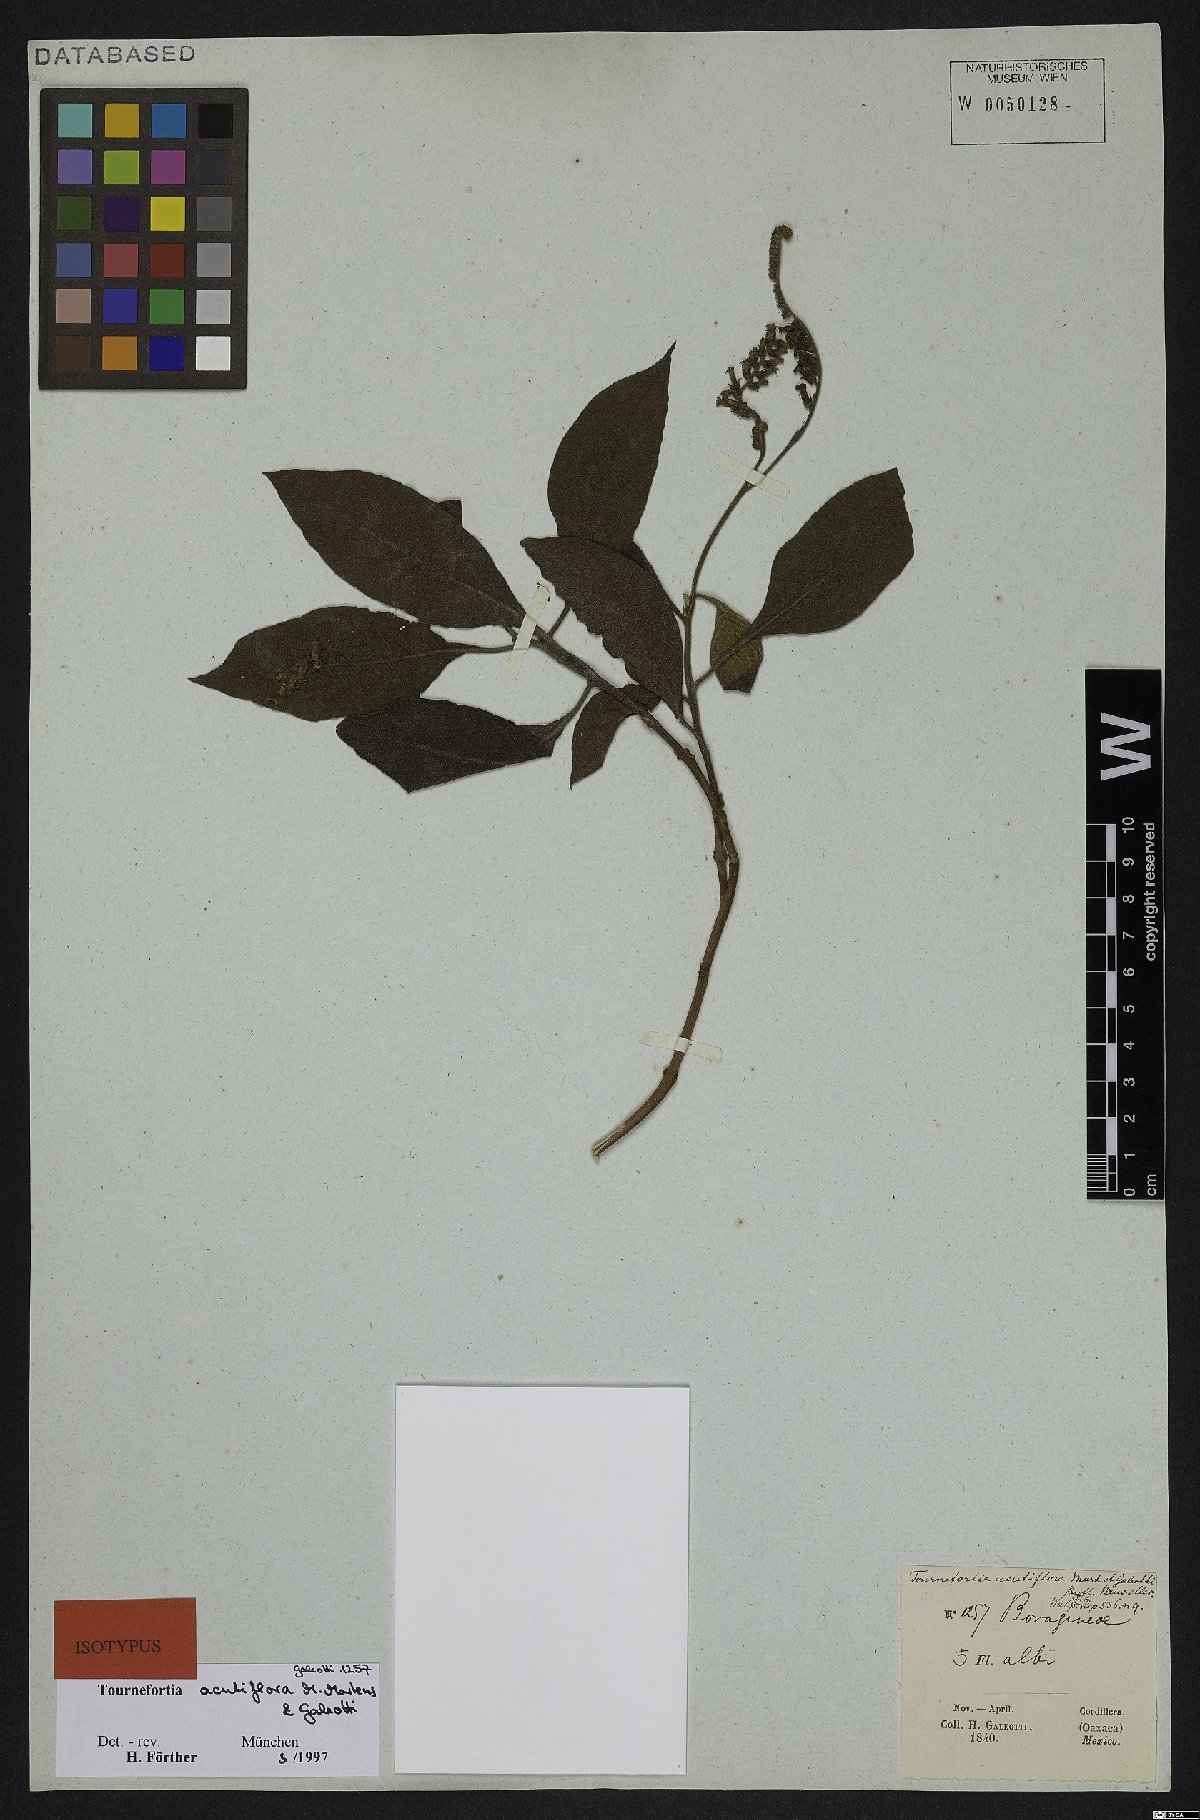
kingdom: Plantae
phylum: Tracheophyta
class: Magnoliopsida
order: Boraginales
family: Heliotropiaceae
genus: Heliotropium
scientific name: Heliotropium petiolare
